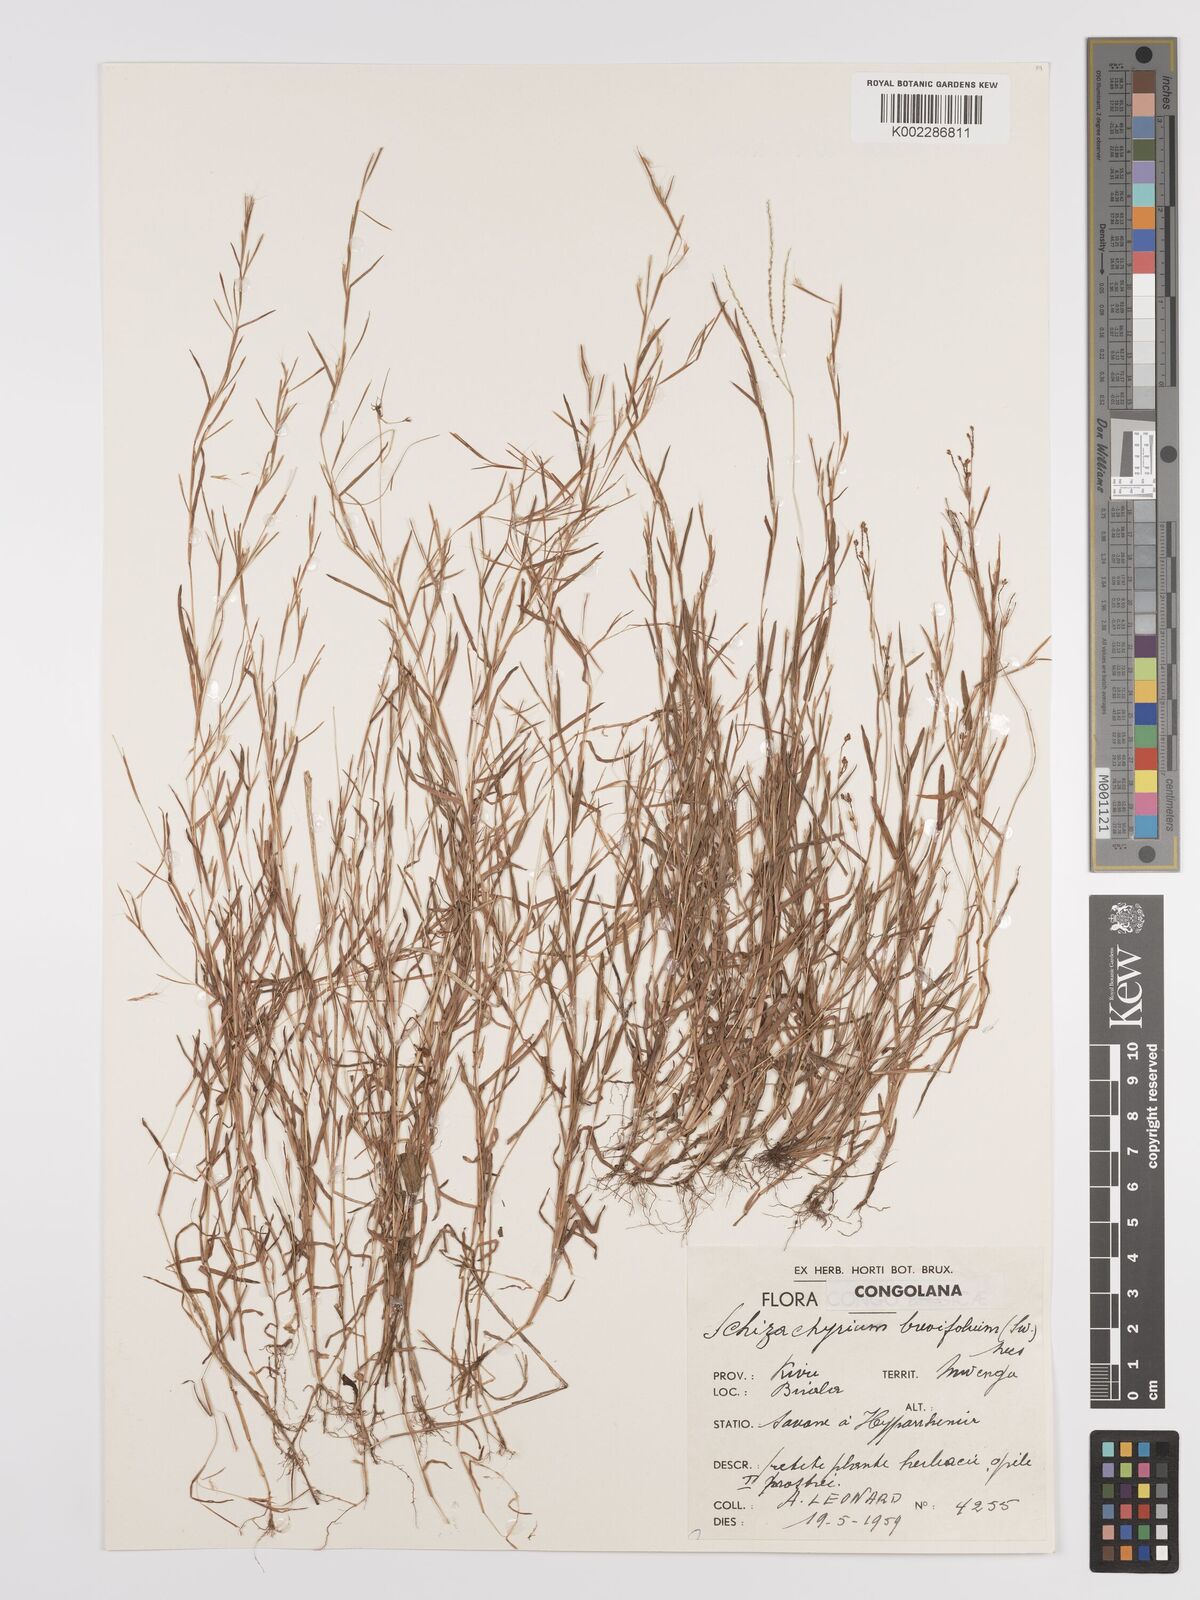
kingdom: Plantae
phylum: Tracheophyta
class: Liliopsida
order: Poales
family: Poaceae
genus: Schizachyrium
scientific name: Schizachyrium brevifolium
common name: Serillo dulce
